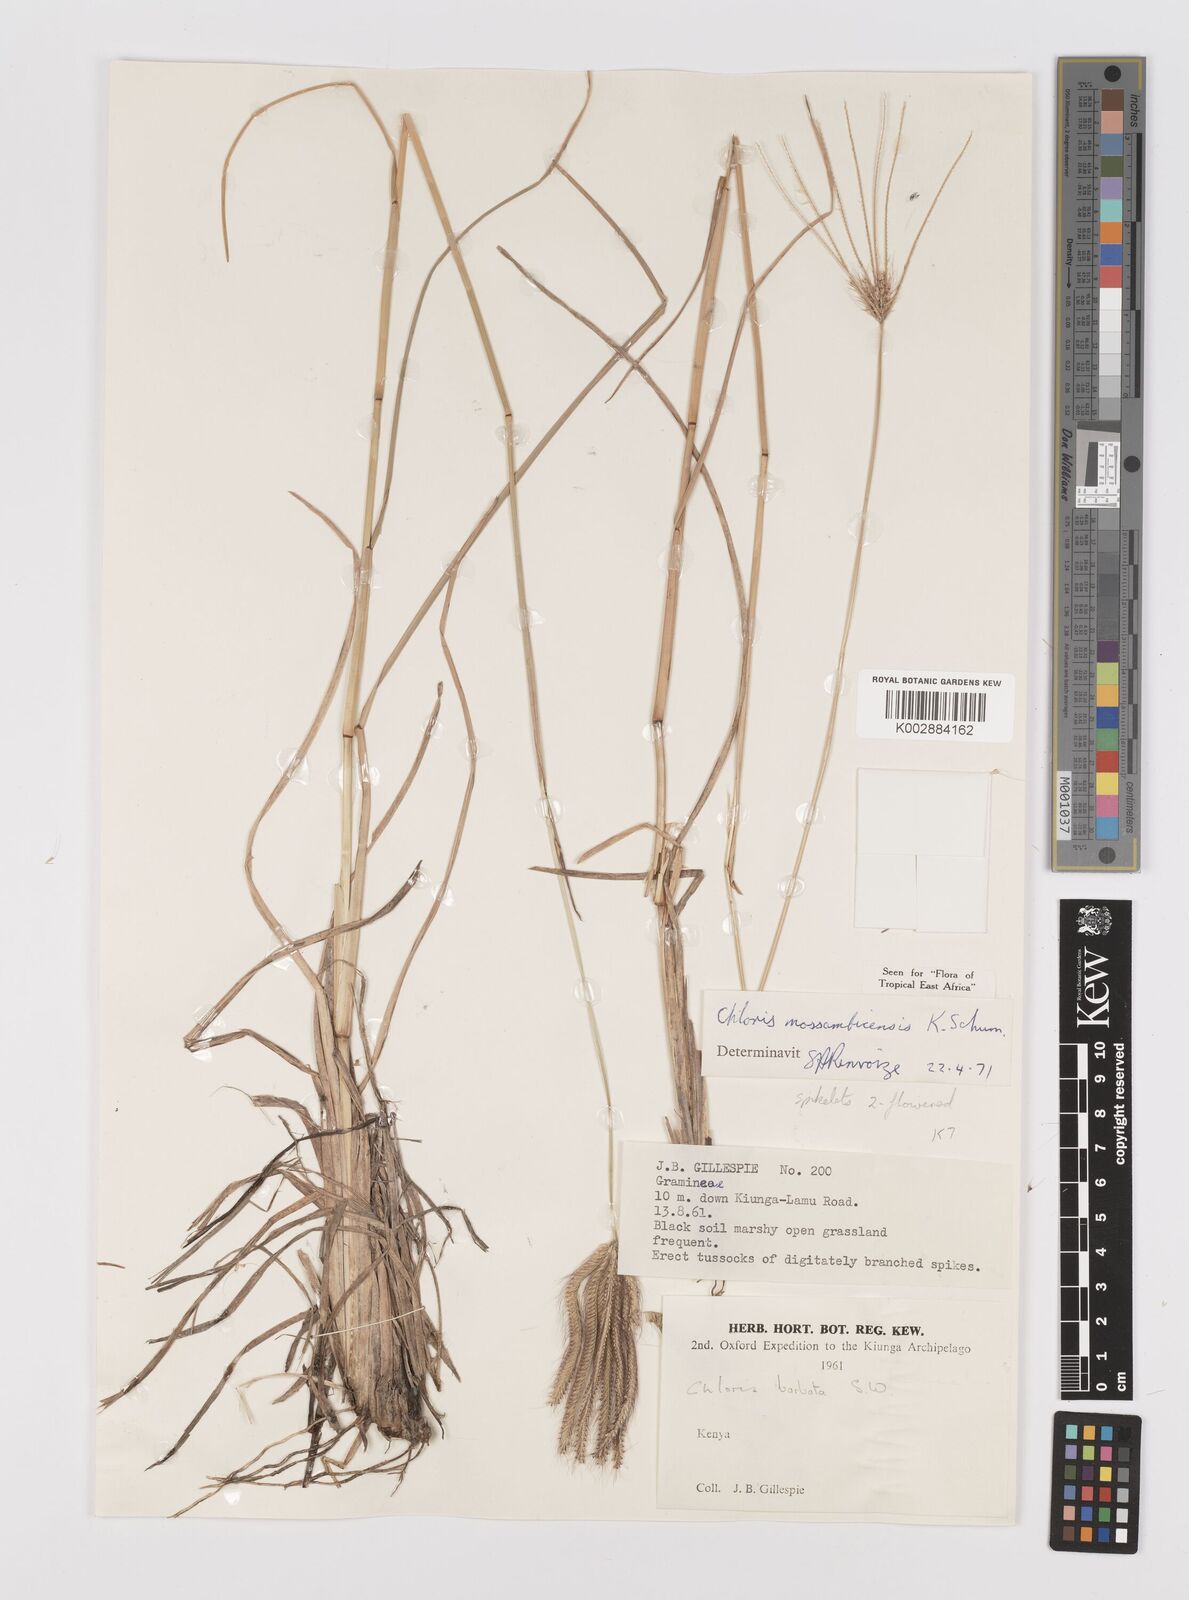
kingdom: Plantae
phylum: Tracheophyta
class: Liliopsida
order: Poales
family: Poaceae
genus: Chloris
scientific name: Chloris mossambicensis
